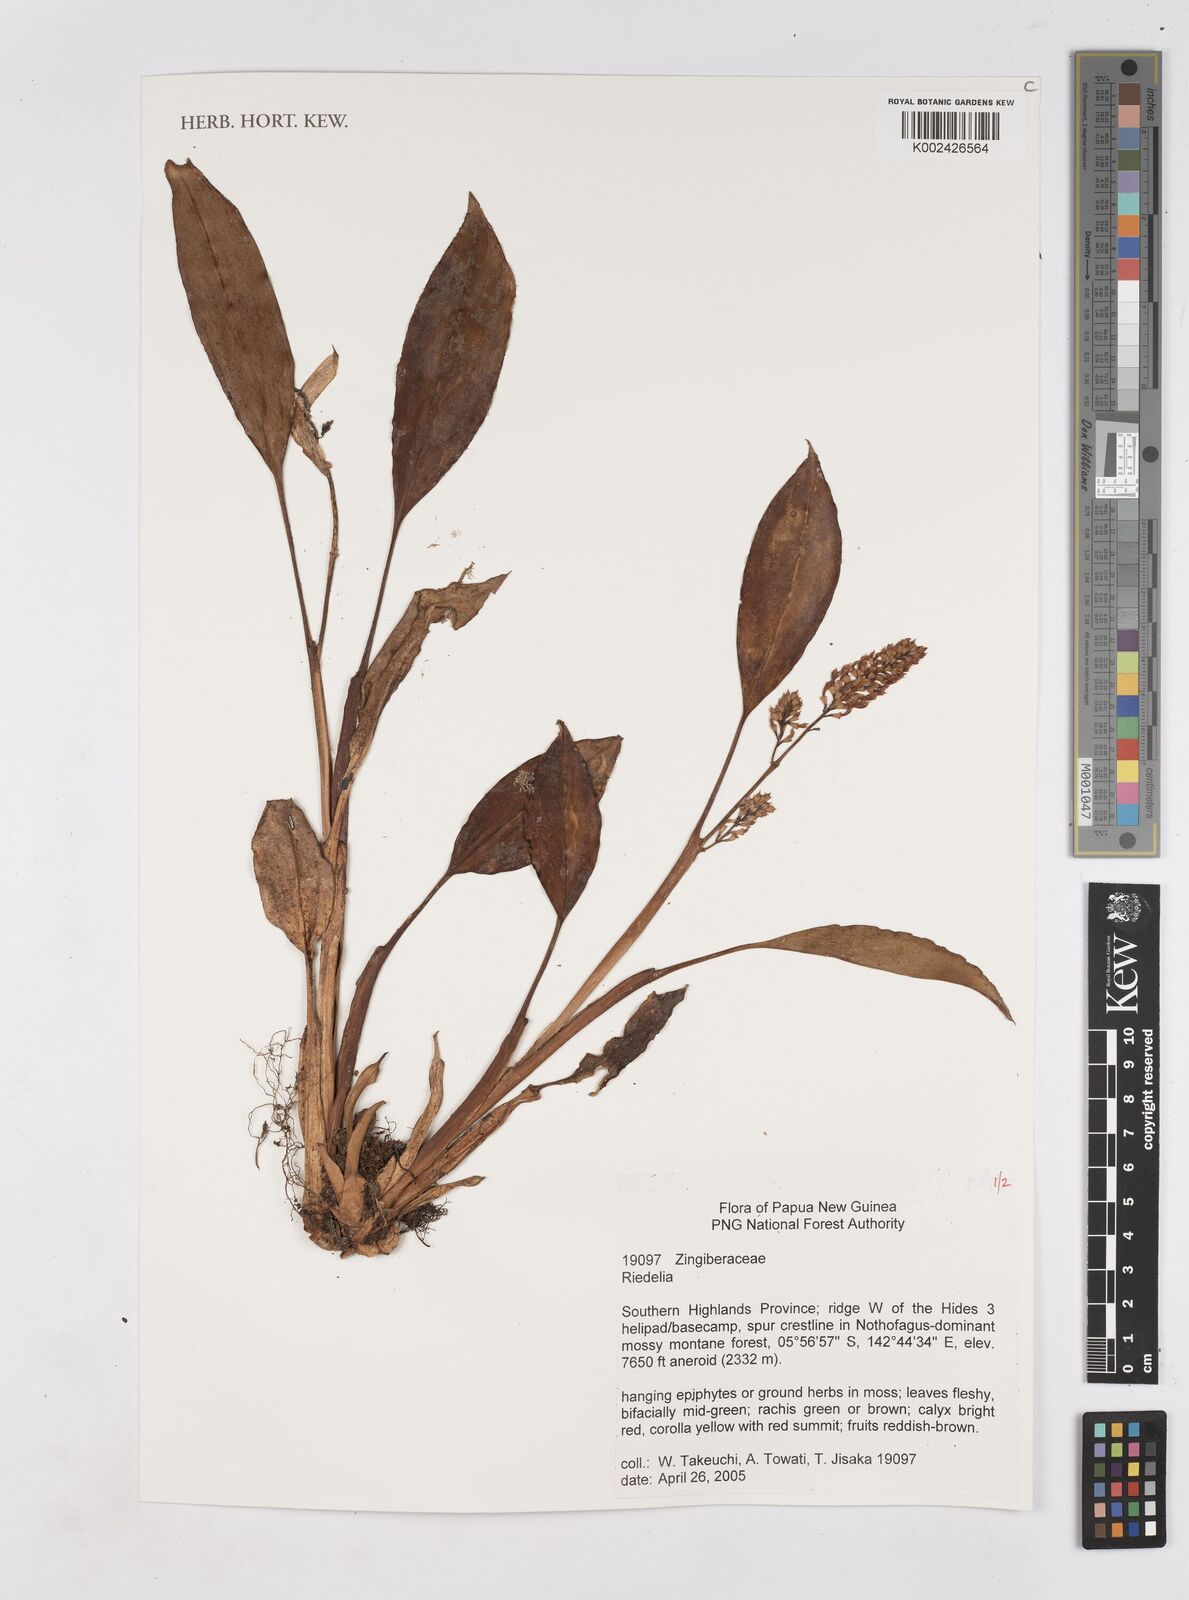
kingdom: Plantae
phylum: Tracheophyta
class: Liliopsida
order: Zingiberales
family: Zingiberaceae
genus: Riedelia
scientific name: Riedelia
